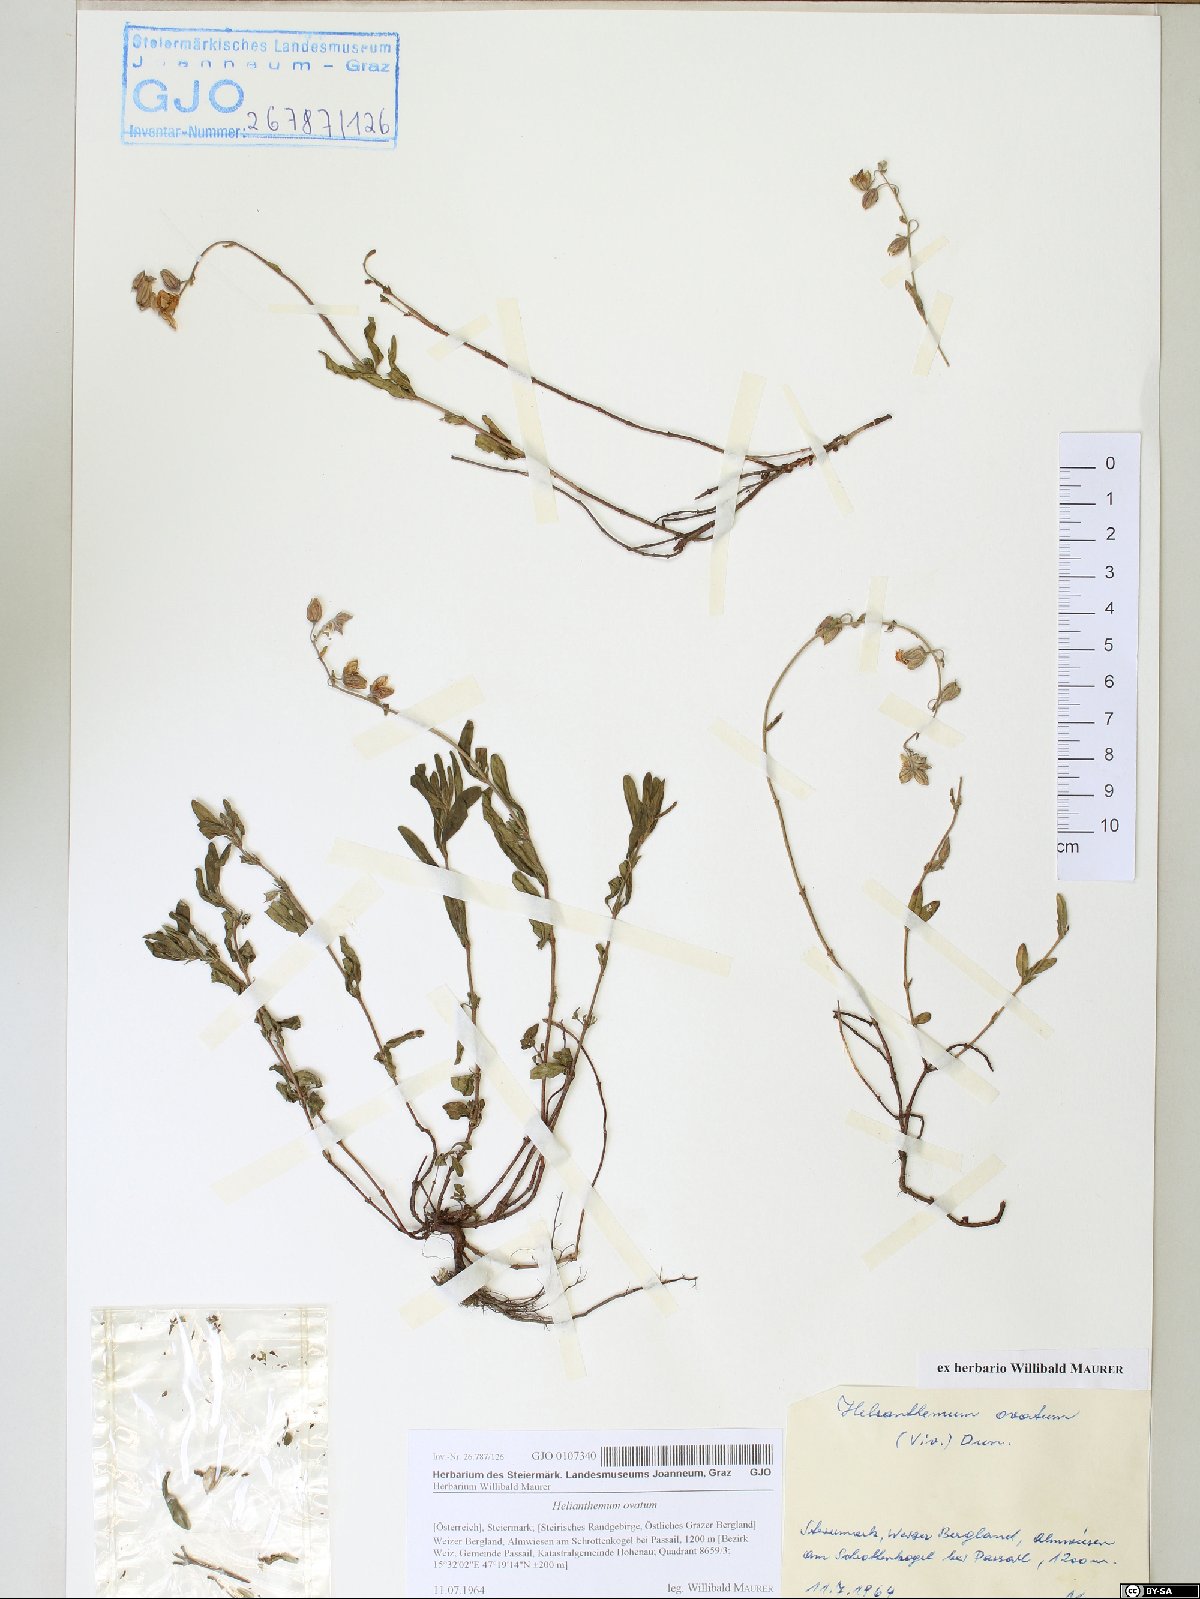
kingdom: Plantae
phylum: Tracheophyta
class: Magnoliopsida
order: Malvales
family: Cistaceae
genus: Helianthemum
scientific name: Helianthemum nummularium
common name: Common rock-rose
